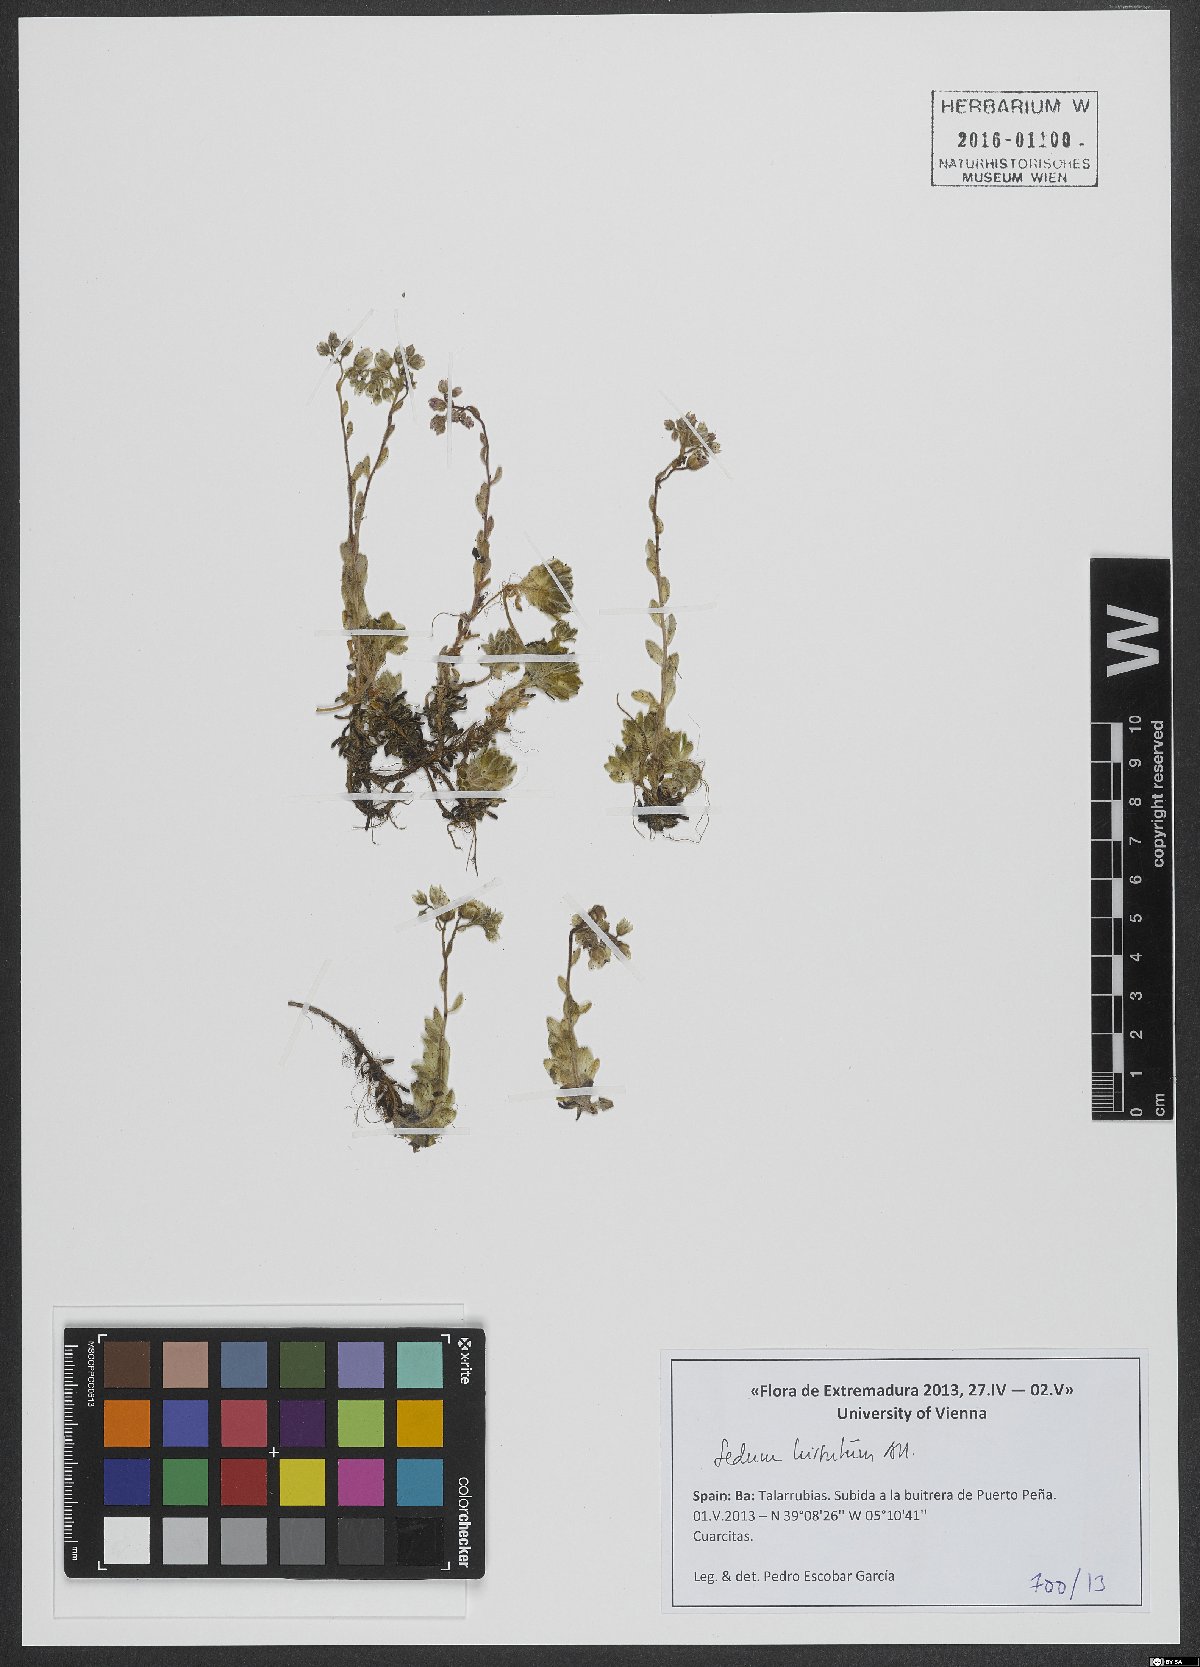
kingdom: Plantae
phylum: Tracheophyta
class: Magnoliopsida
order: Saxifragales
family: Crassulaceae
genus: Sedum
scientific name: Sedum hirsutum
